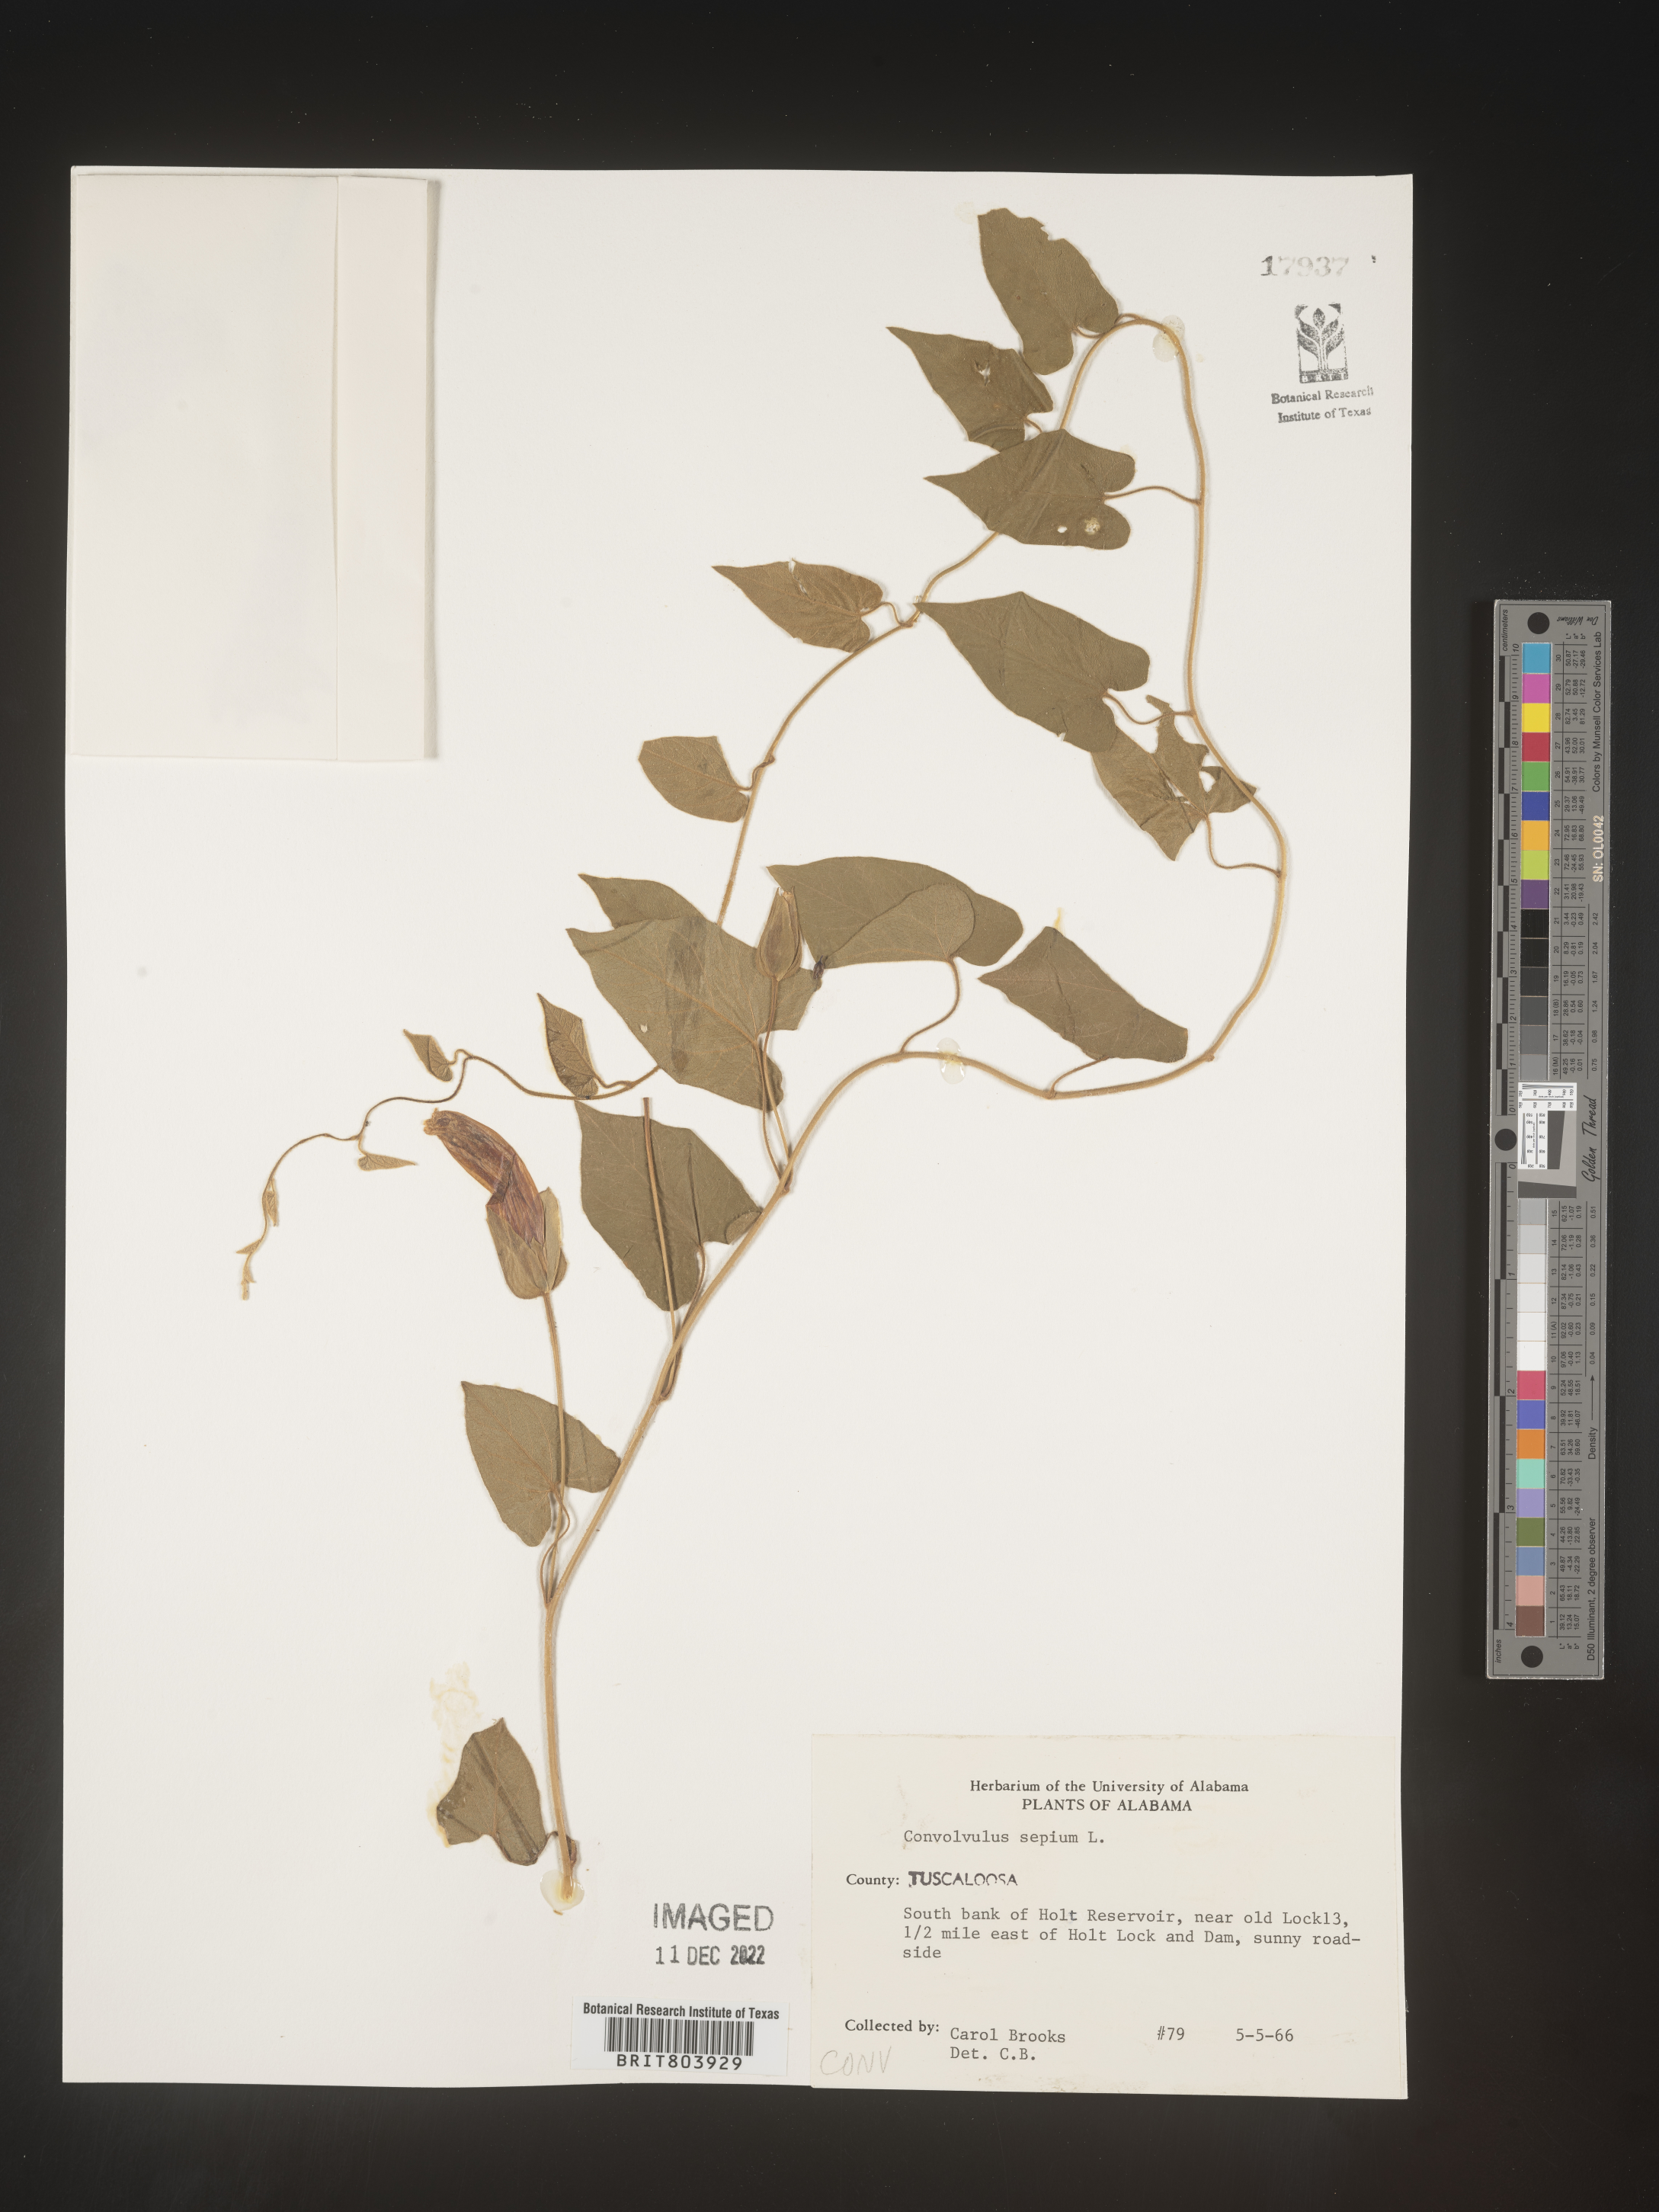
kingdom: Plantae
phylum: Tracheophyta
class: Magnoliopsida
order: Solanales
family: Convolvulaceae
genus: Calystegia
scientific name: Calystegia sepium
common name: Hedge bindweed
